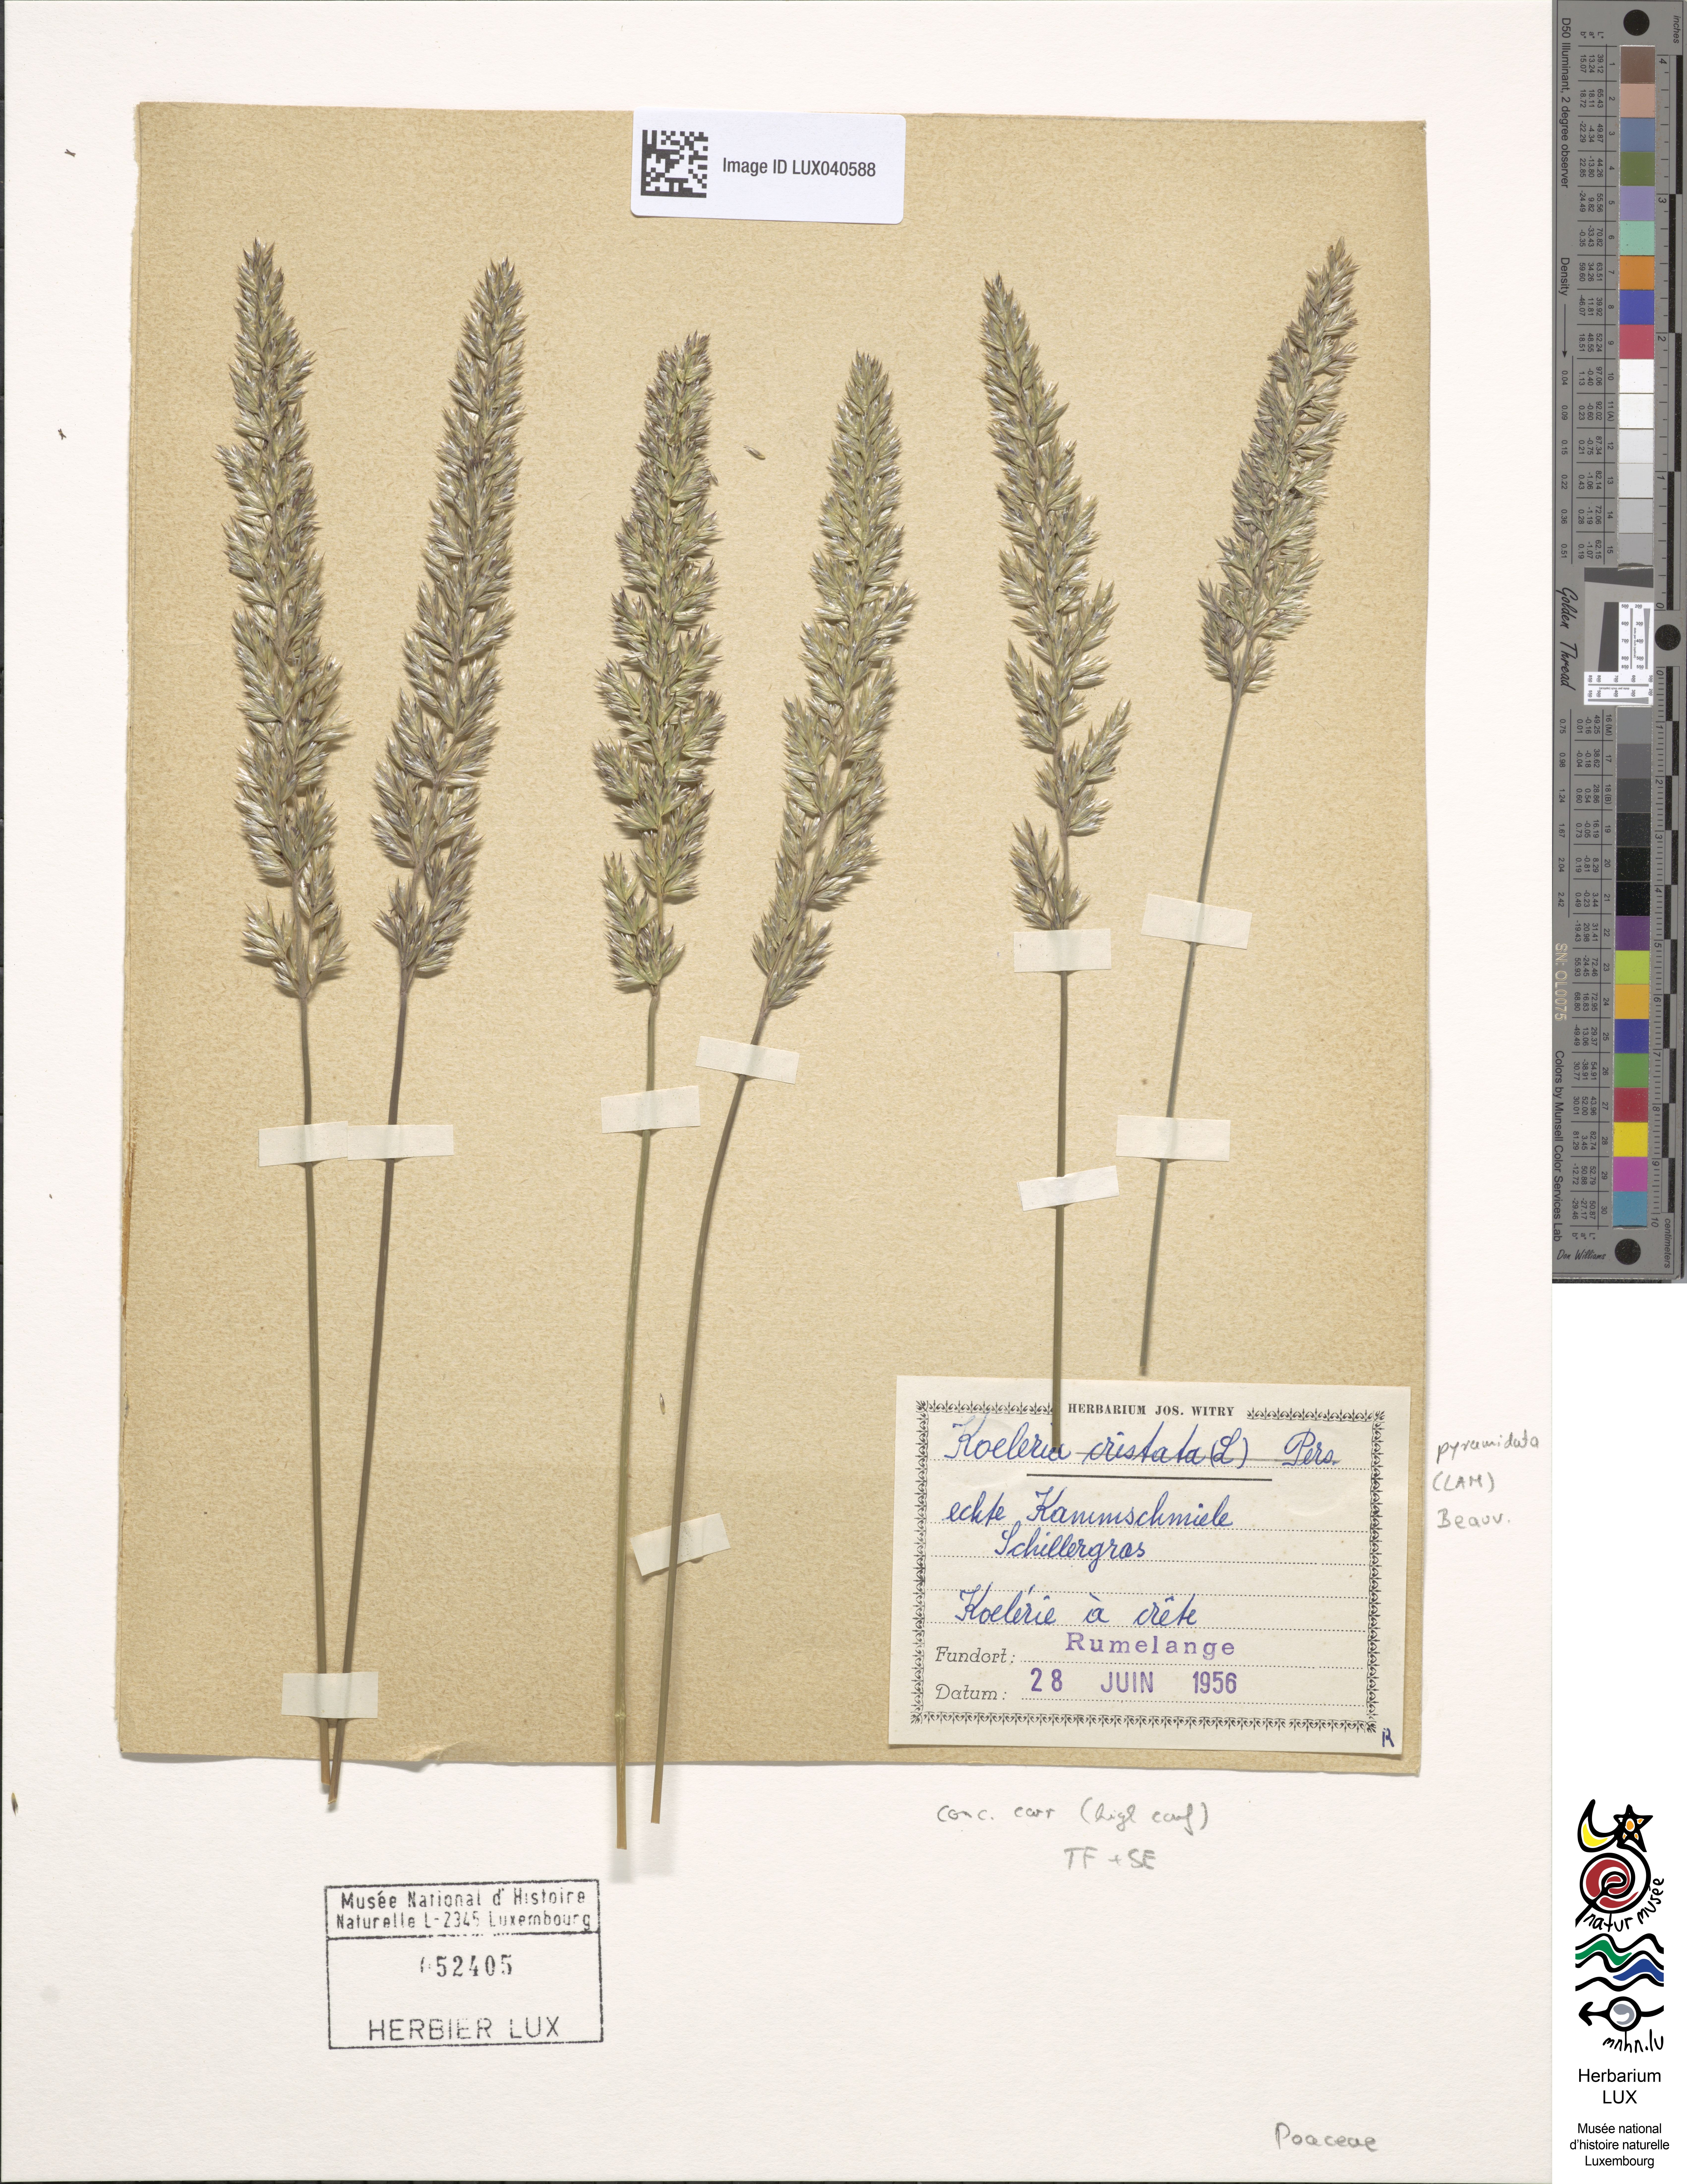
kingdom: Plantae
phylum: Tracheophyta
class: Liliopsida
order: Poales
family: Poaceae
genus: Koeleria
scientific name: Koeleria pyramidata
